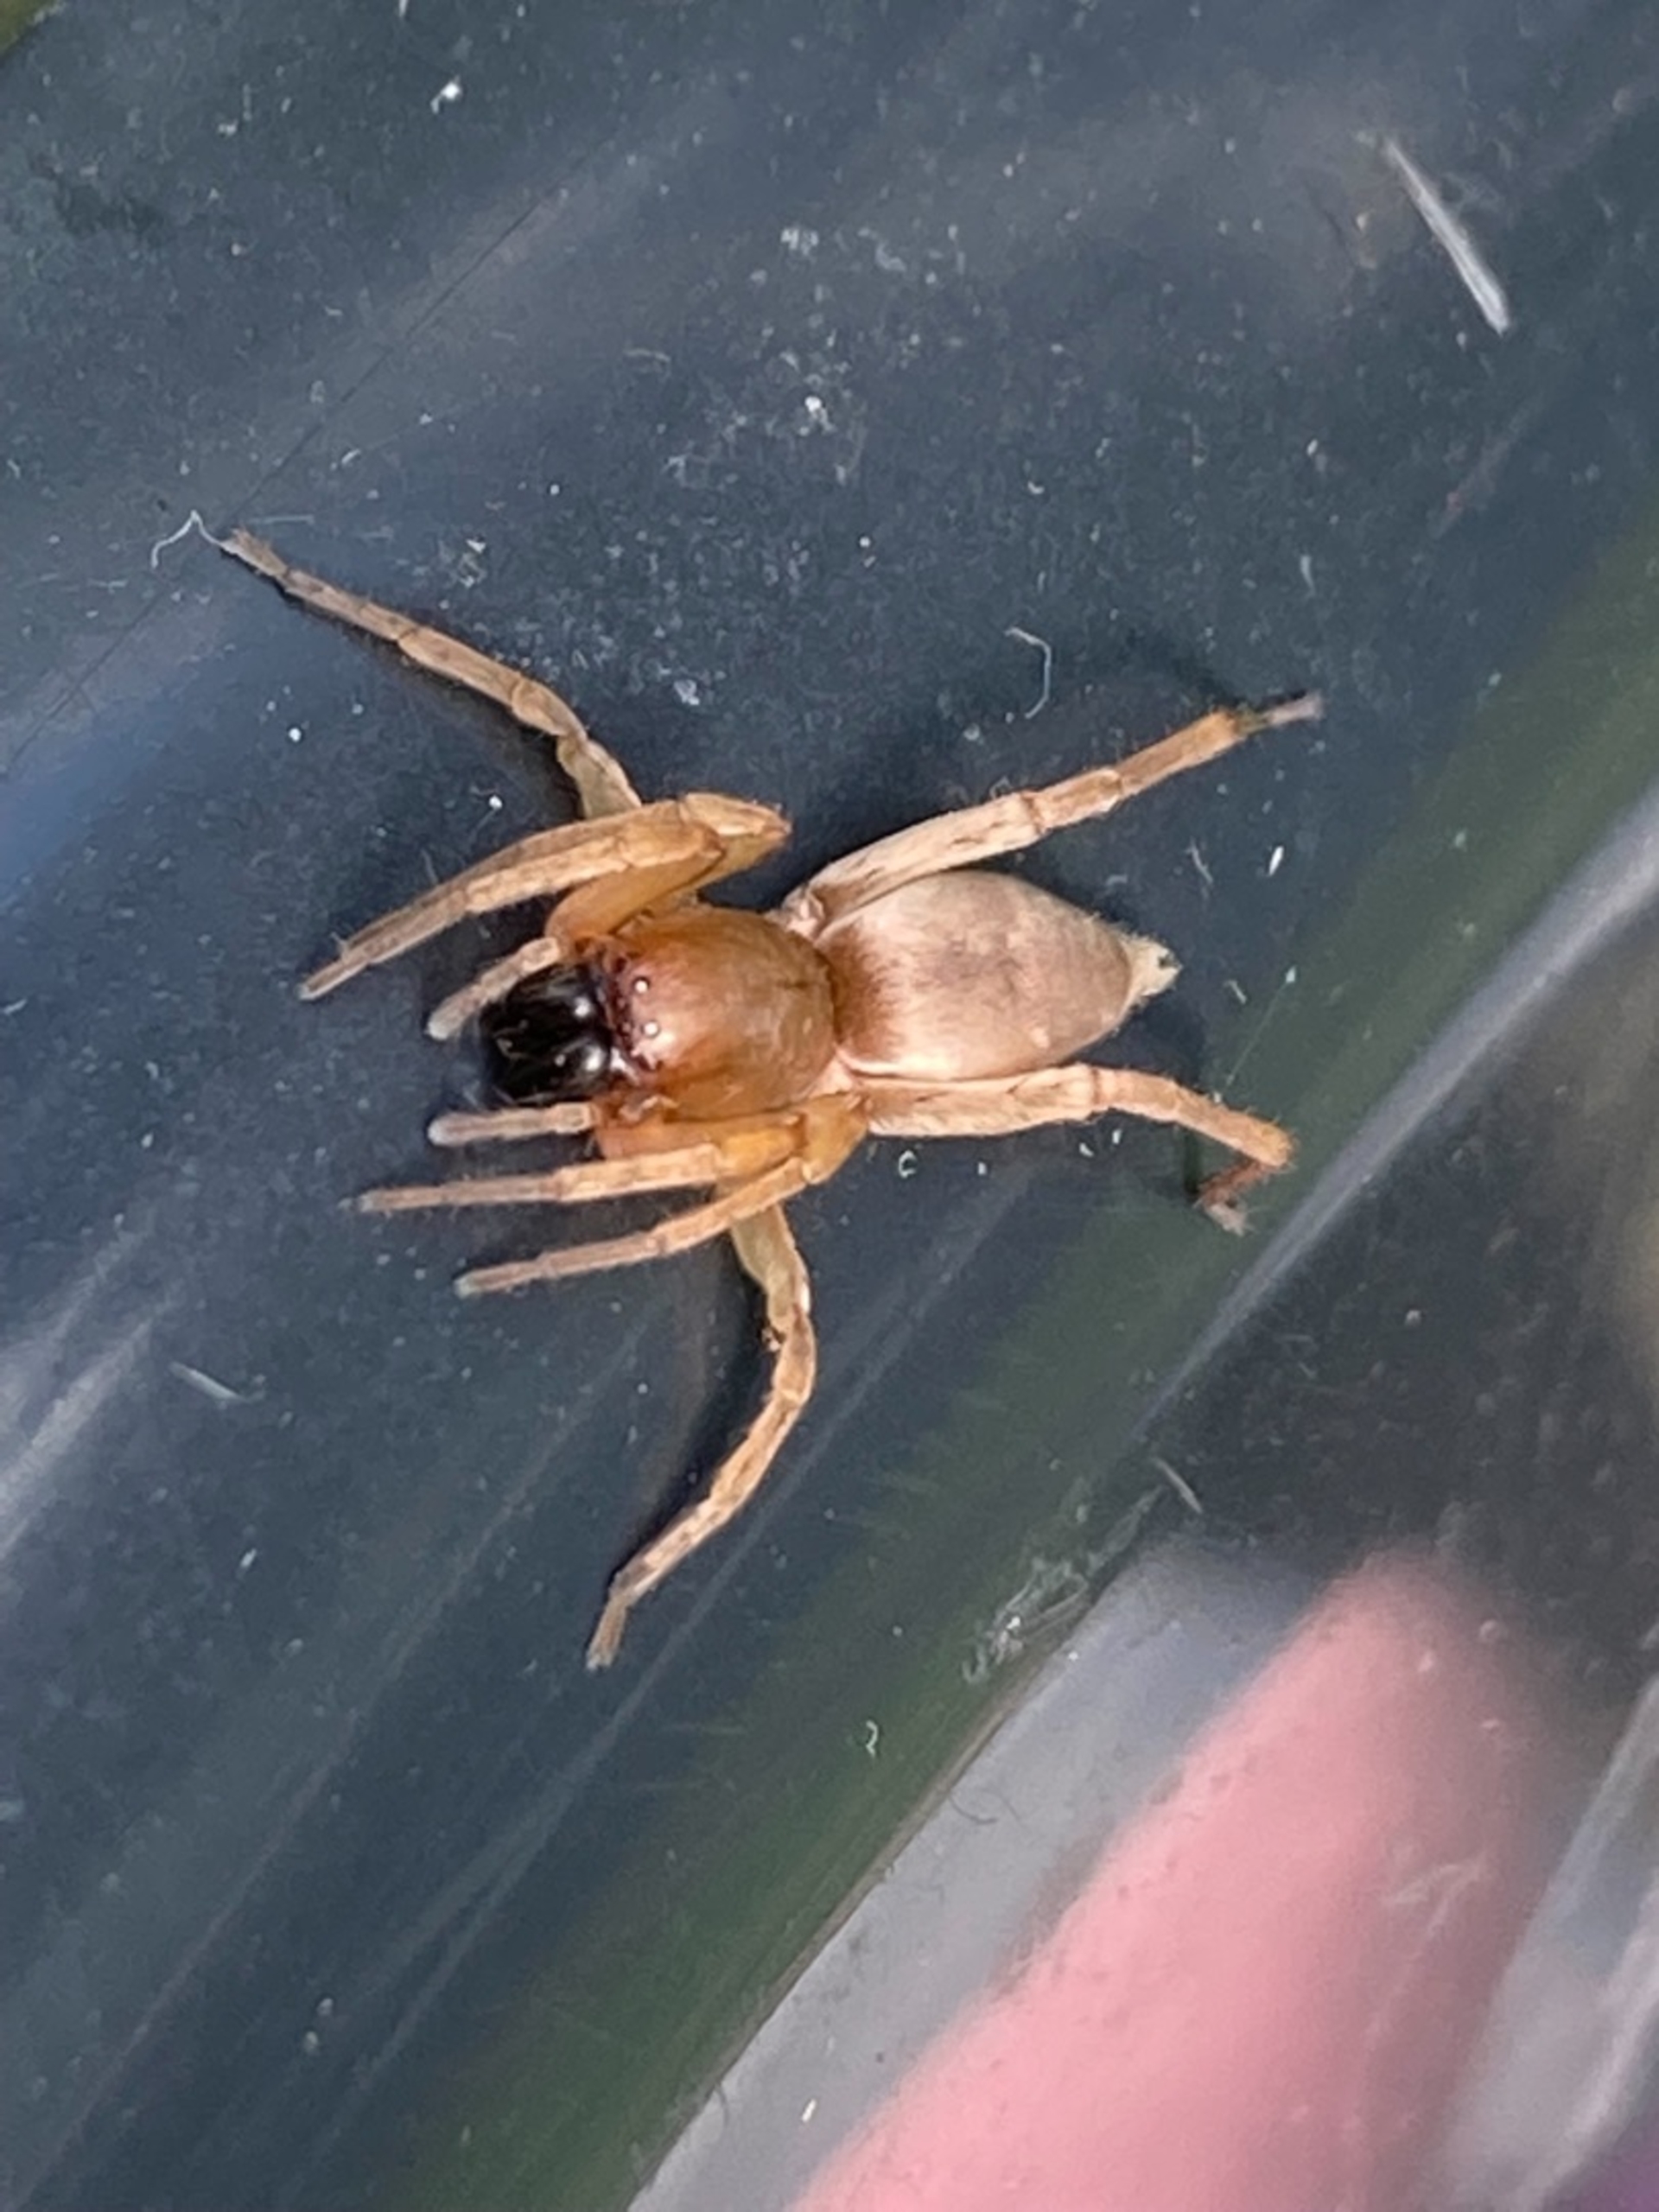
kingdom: Animalia
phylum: Arthropoda
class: Arachnida
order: Araneae
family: Clubionidae
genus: Clubiona
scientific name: Clubiona
